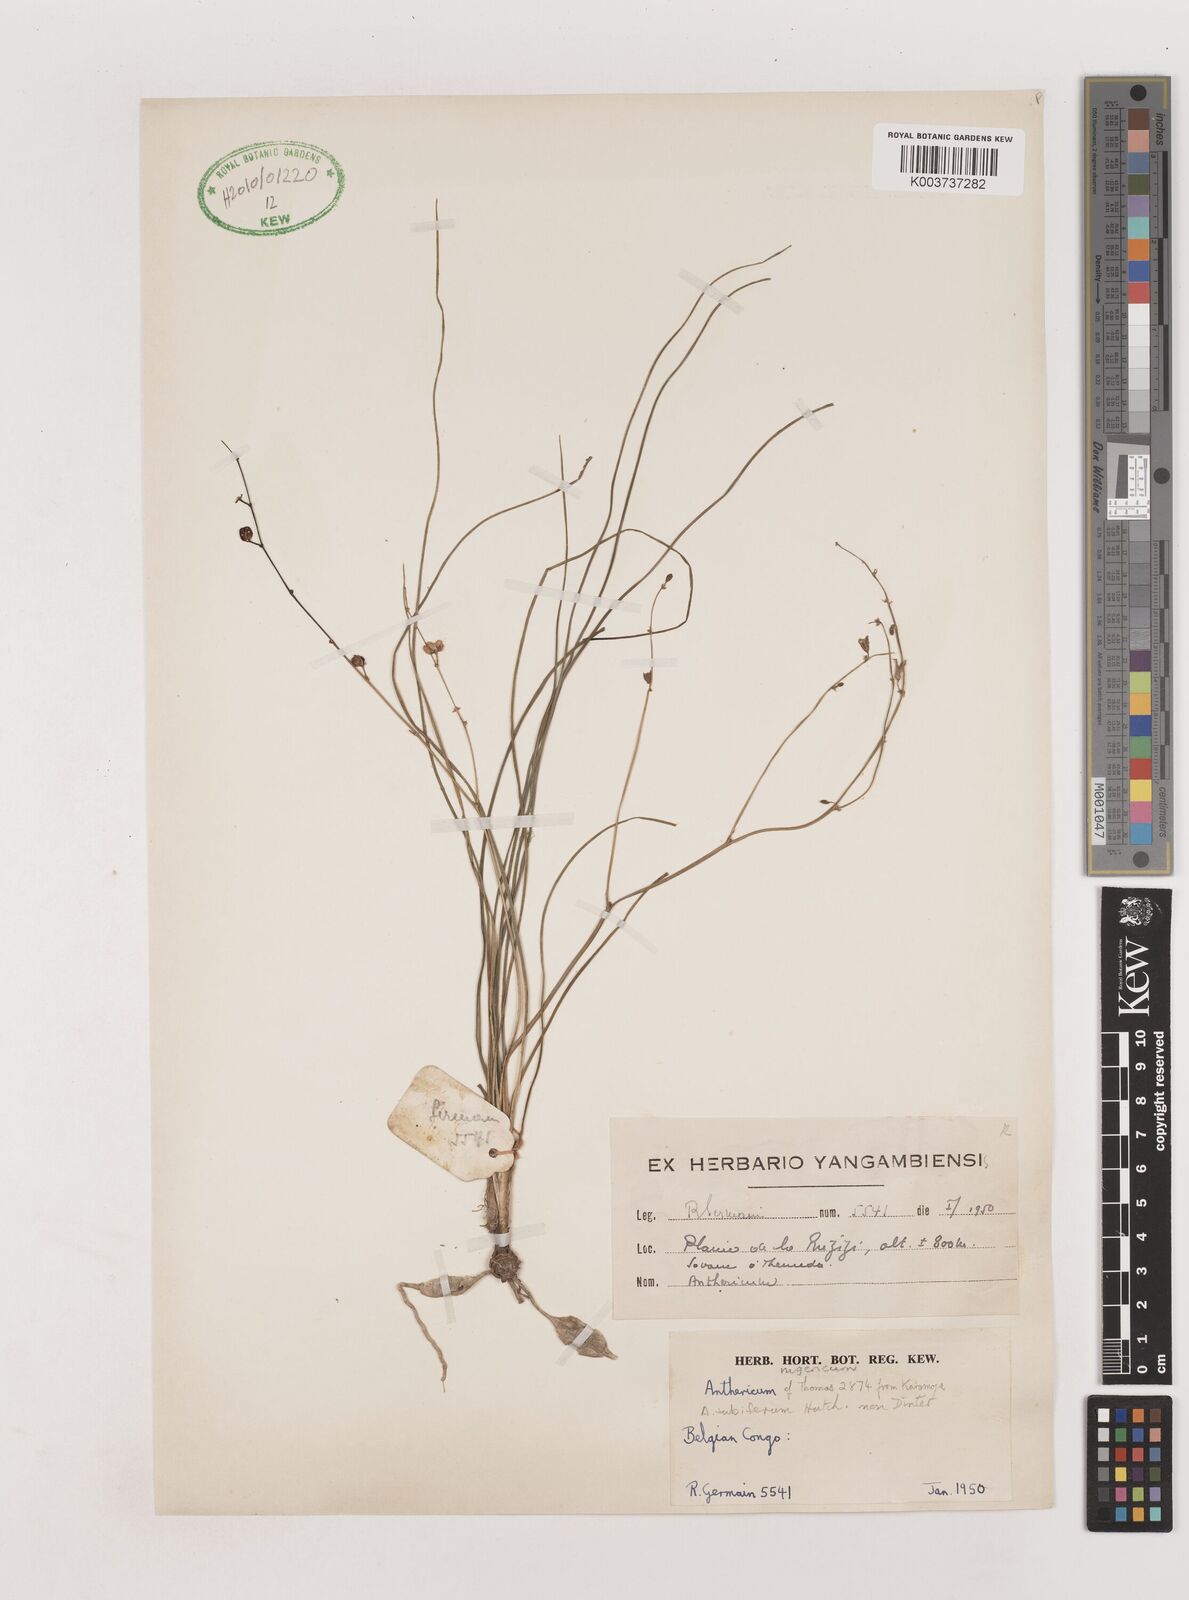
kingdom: Plantae
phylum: Tracheophyta
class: Liliopsida
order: Asparagales
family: Asparagaceae
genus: Chlorophytum
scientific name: Chlorophytum angustissimum
